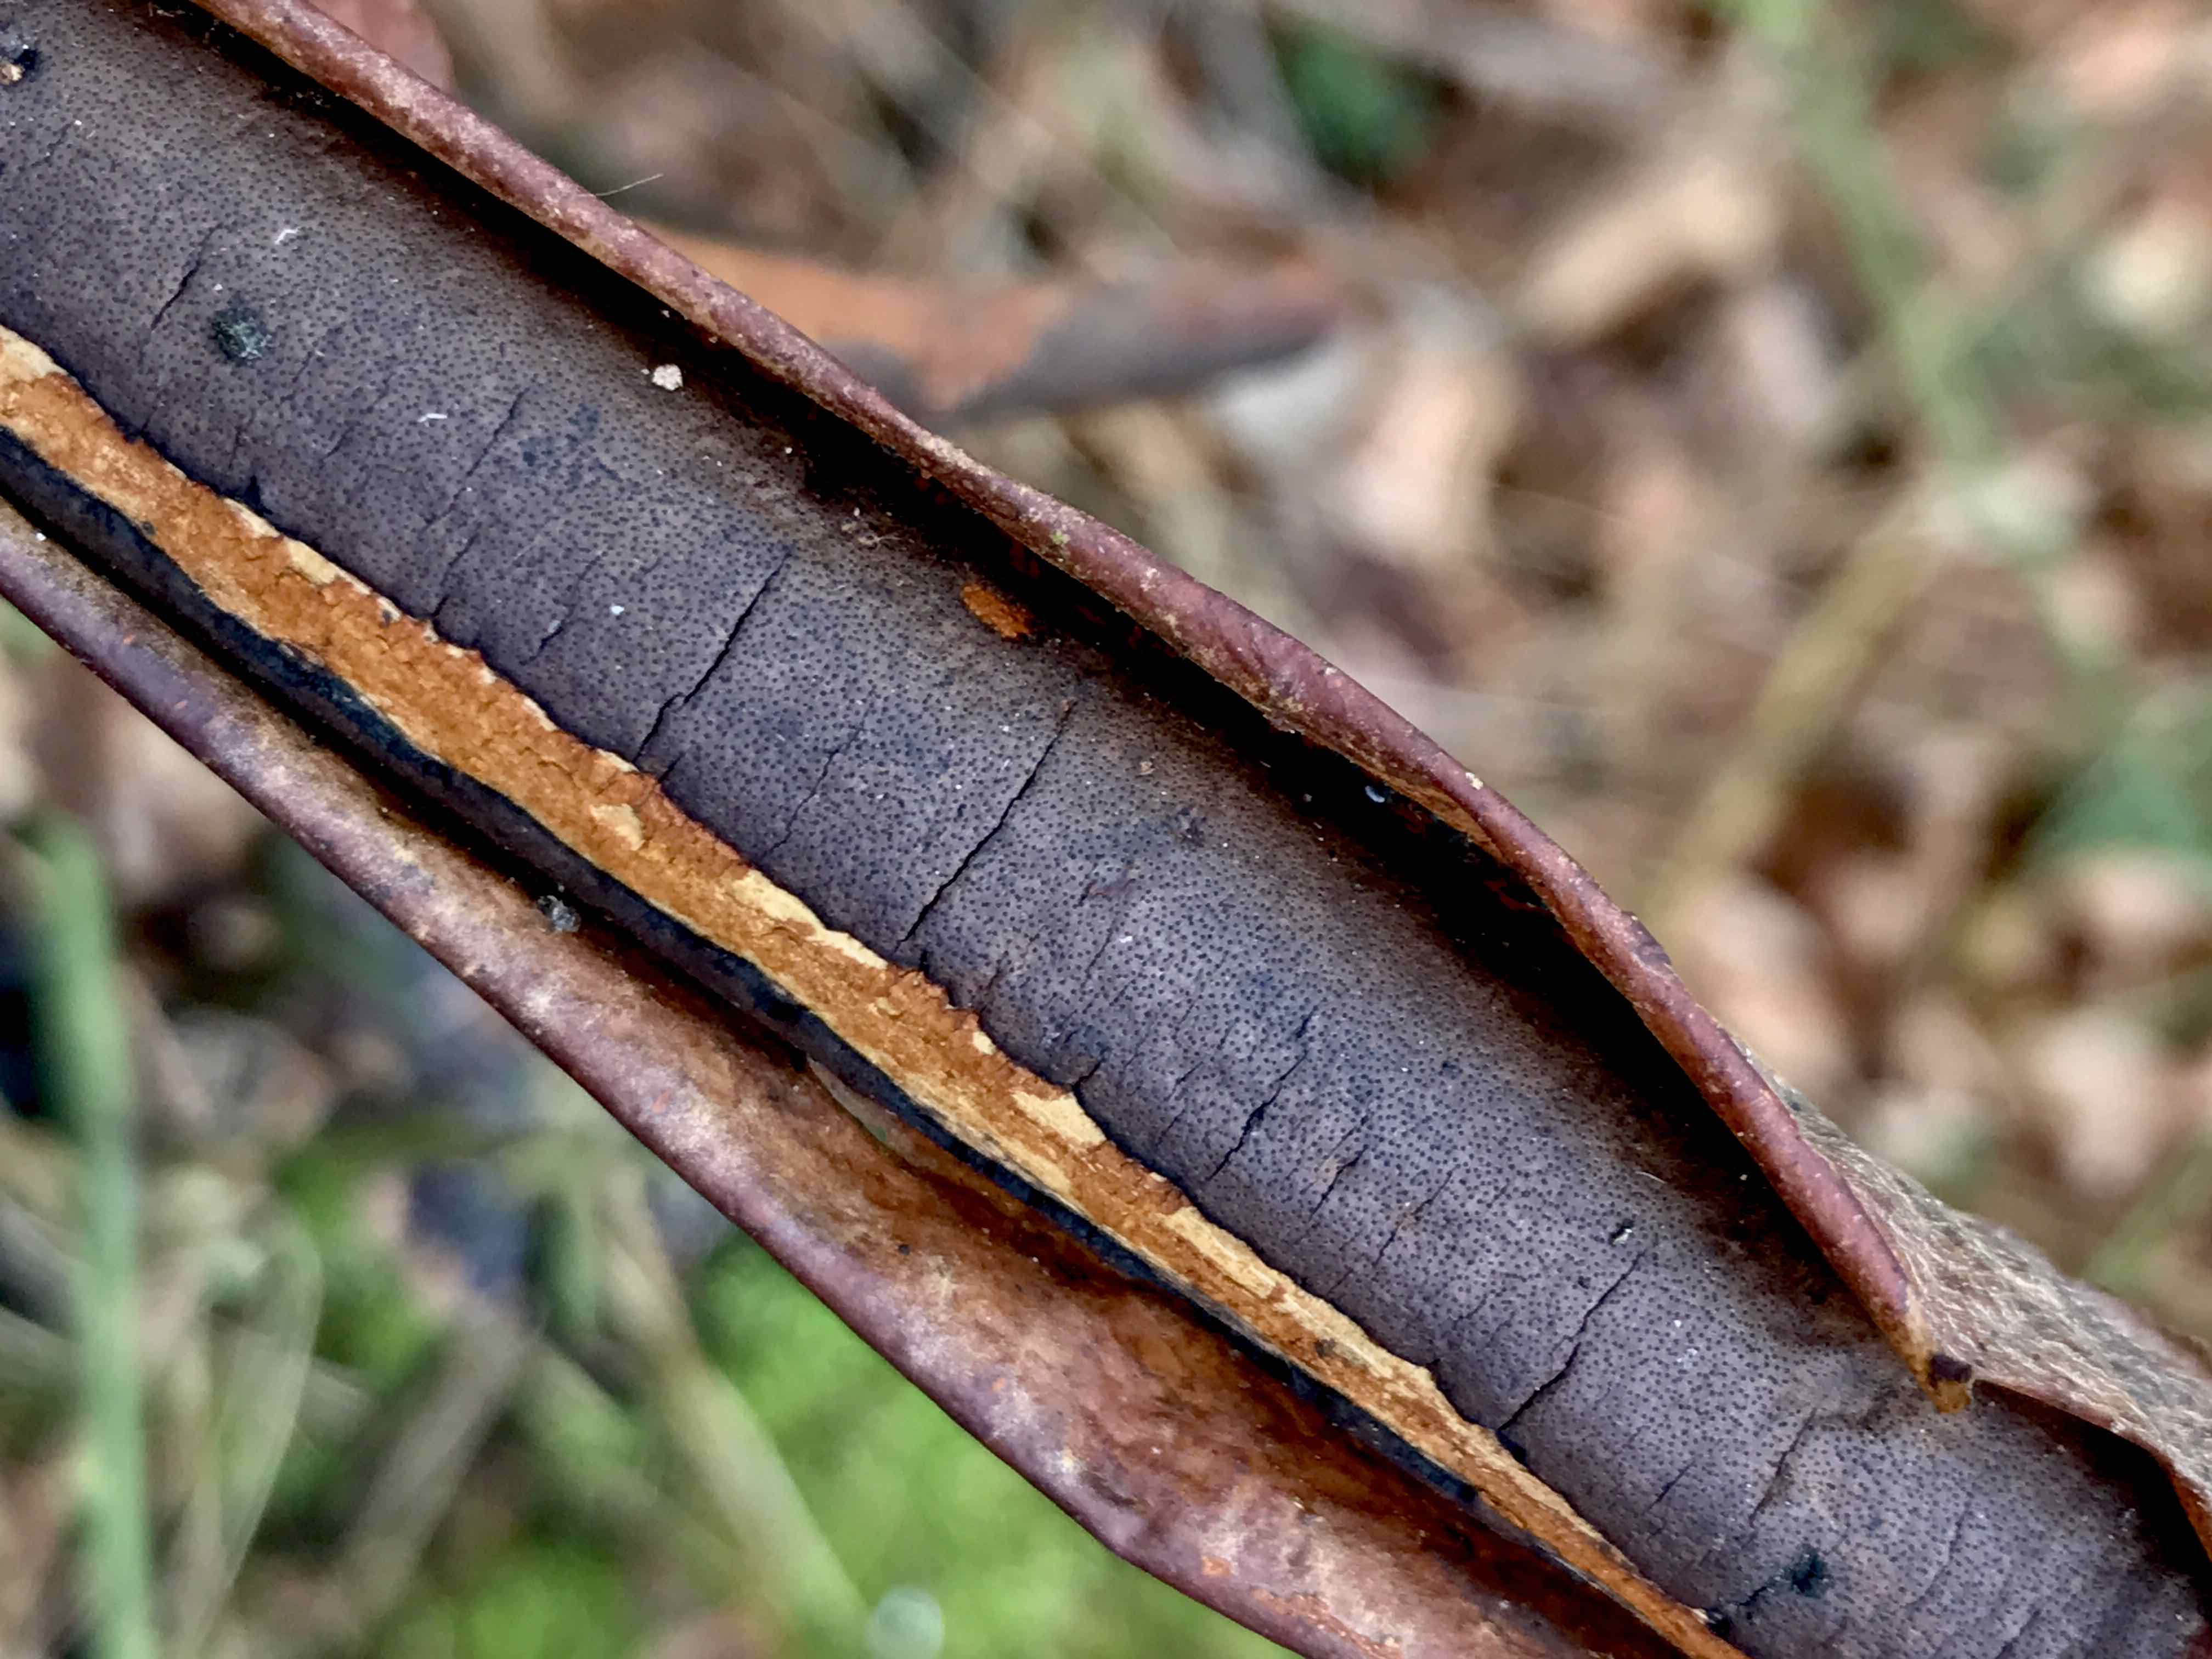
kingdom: Fungi
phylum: Ascomycota
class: Sordariomycetes
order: Xylariales
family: Diatrypaceae
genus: Diatrype
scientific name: Diatrype decorticata
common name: barksprænger-kulskorpe
